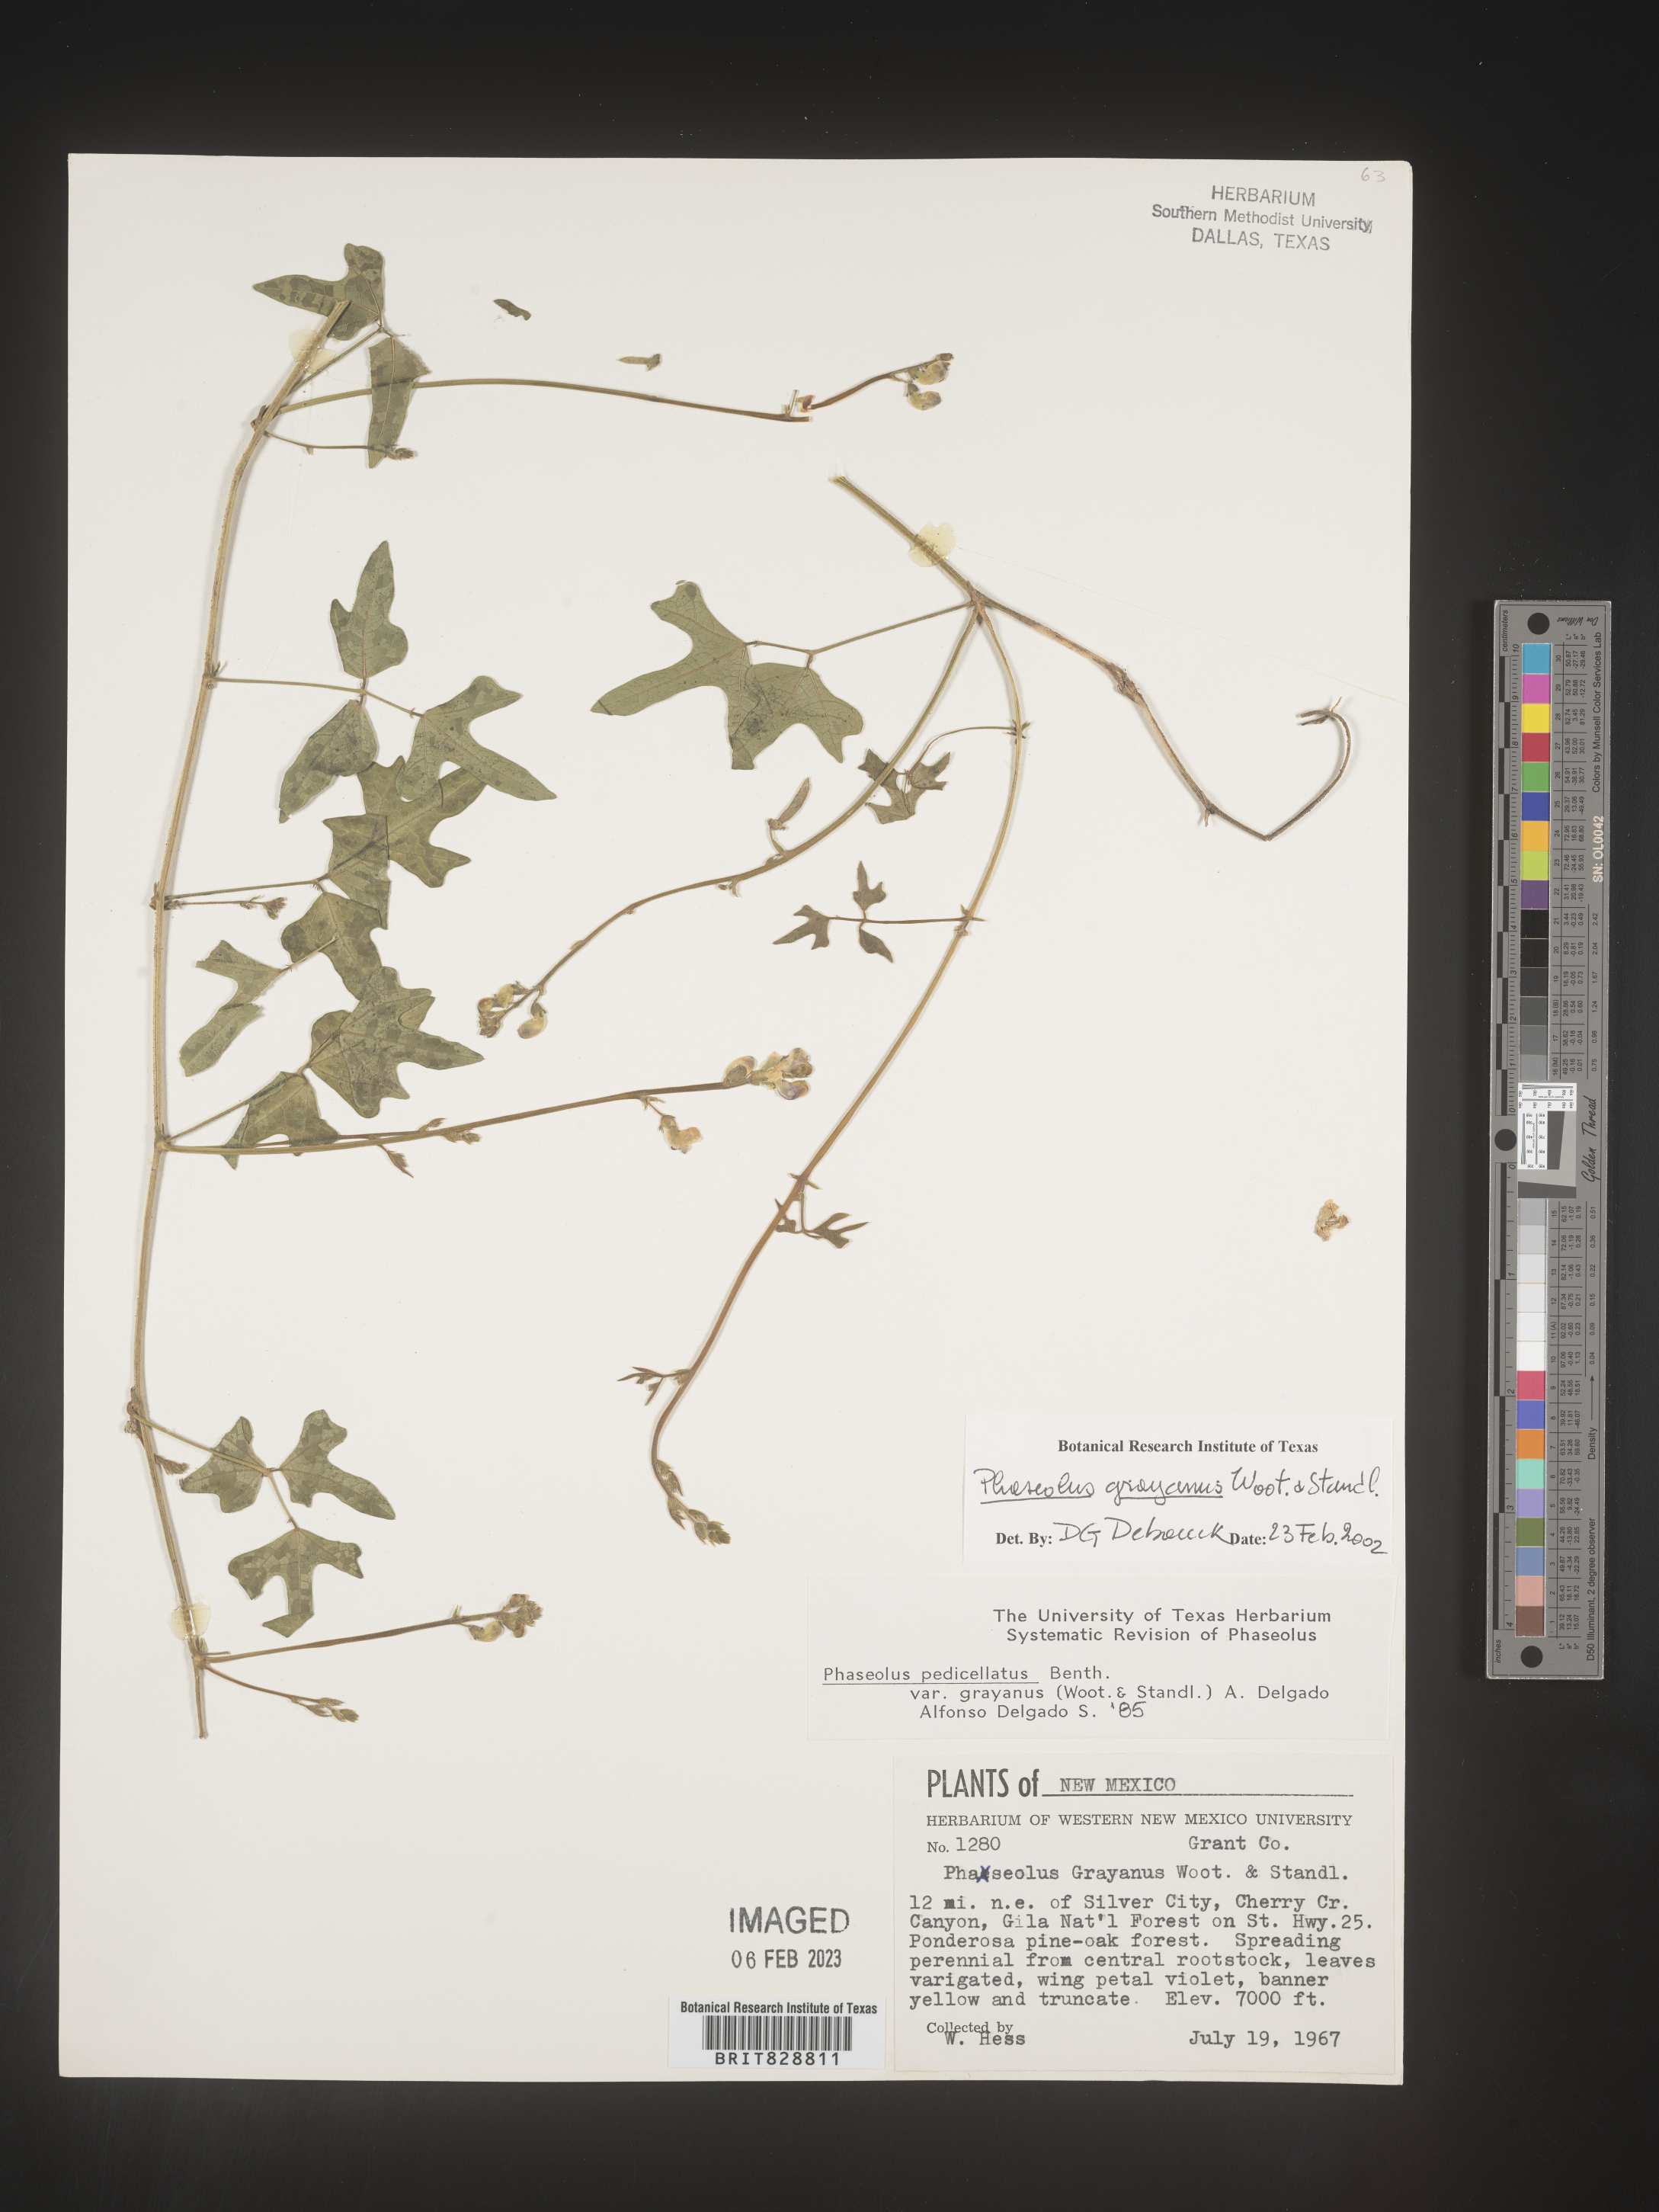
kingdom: Plantae
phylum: Tracheophyta
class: Magnoliopsida
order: Fabales
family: Fabaceae
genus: Phaseolus
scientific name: Phaseolus
